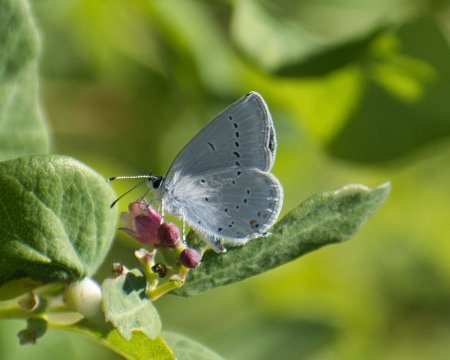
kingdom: Animalia
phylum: Arthropoda
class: Insecta
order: Lepidoptera
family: Lycaenidae
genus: Elkalyce
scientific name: Elkalyce amyntula
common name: Western Tailed-Blue
